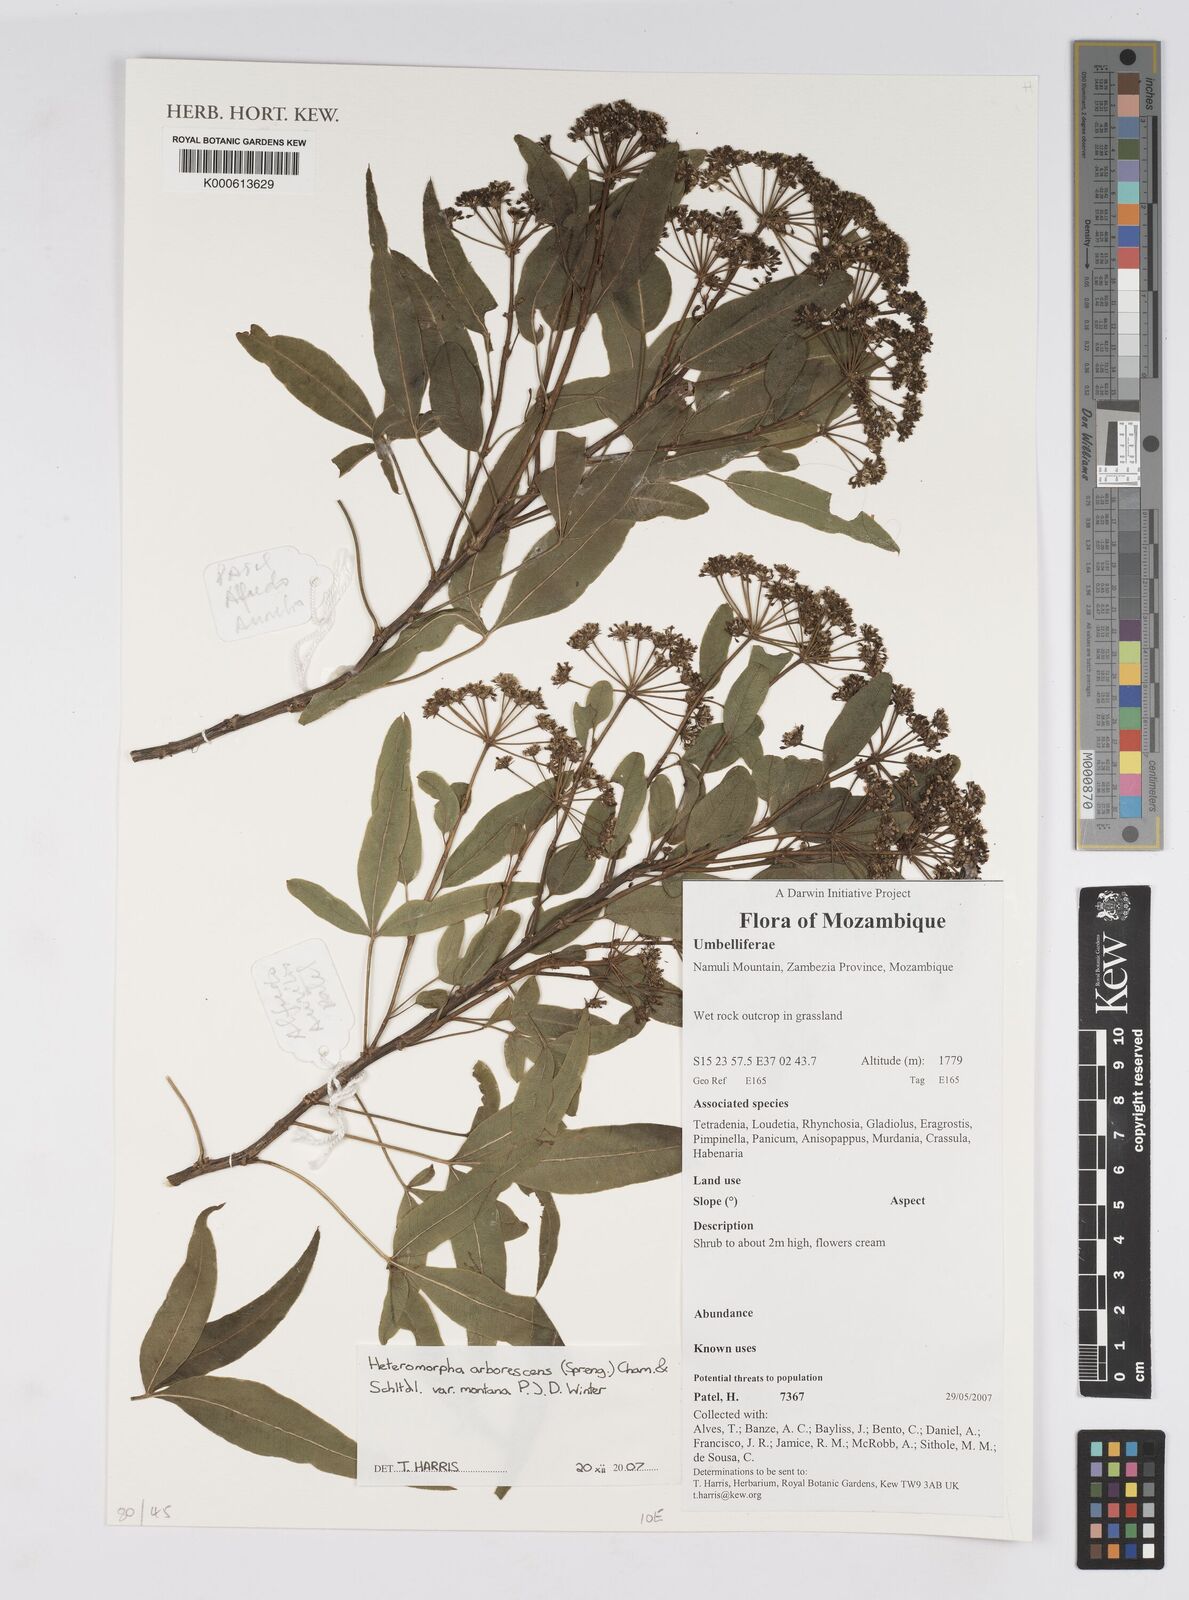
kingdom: Plantae
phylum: Tracheophyta
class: Magnoliopsida
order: Apiales
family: Apiaceae
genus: Heteromorpha
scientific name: Heteromorpha montana
